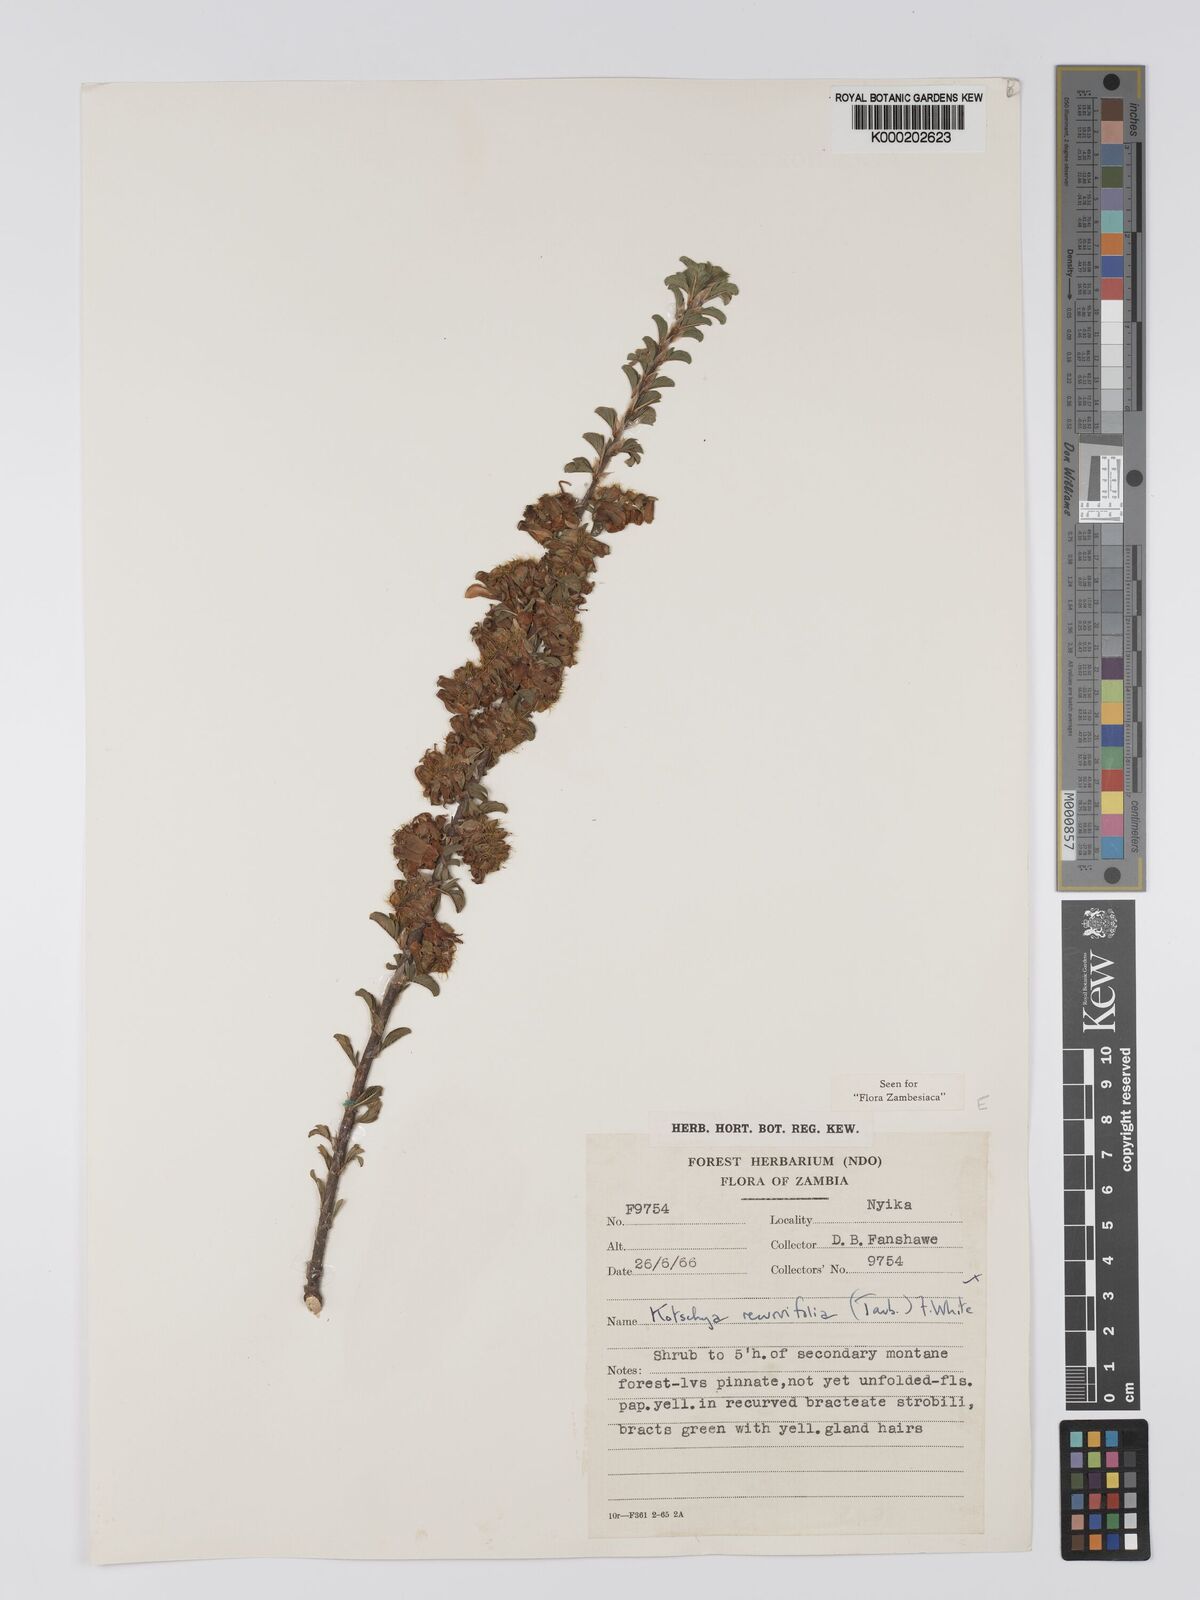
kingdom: Plantae
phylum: Tracheophyta
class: Magnoliopsida
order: Fabales
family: Fabaceae
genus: Kotschya
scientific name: Kotschya recurvifolia
